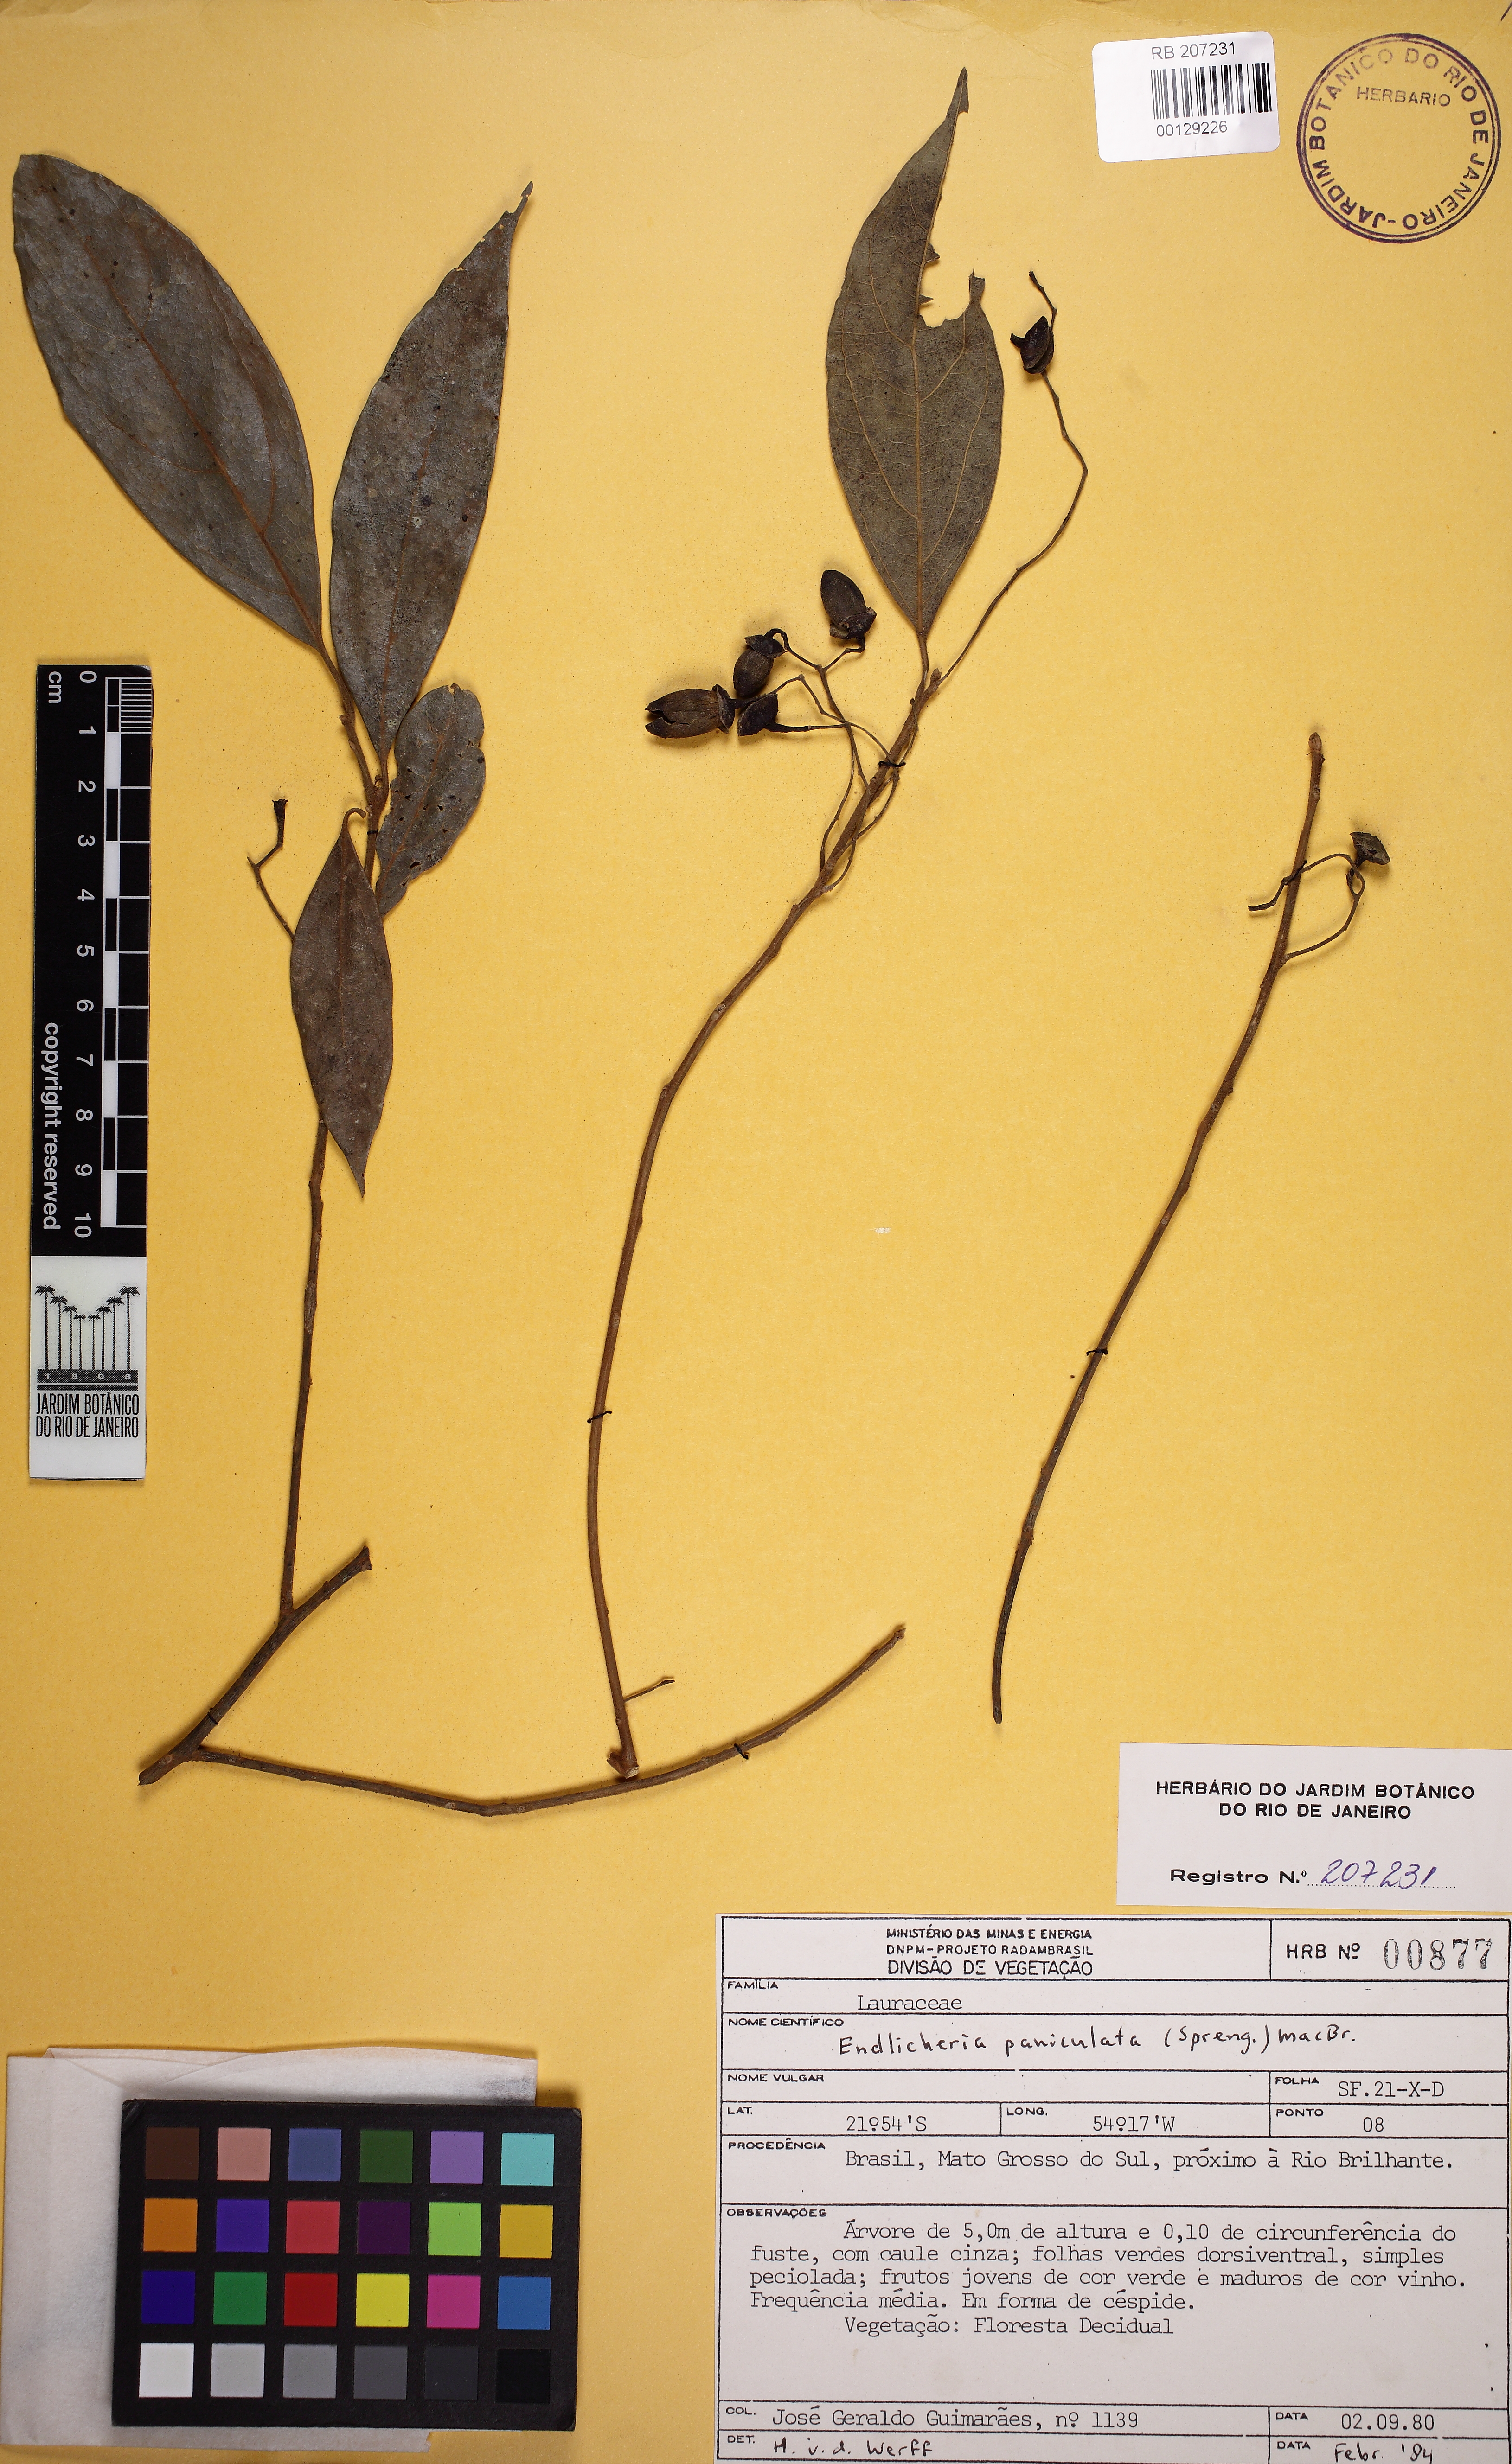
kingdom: Plantae
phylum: Tracheophyta
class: Magnoliopsida
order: Laurales
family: Lauraceae
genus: Endlicheria
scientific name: Endlicheria paniculata
